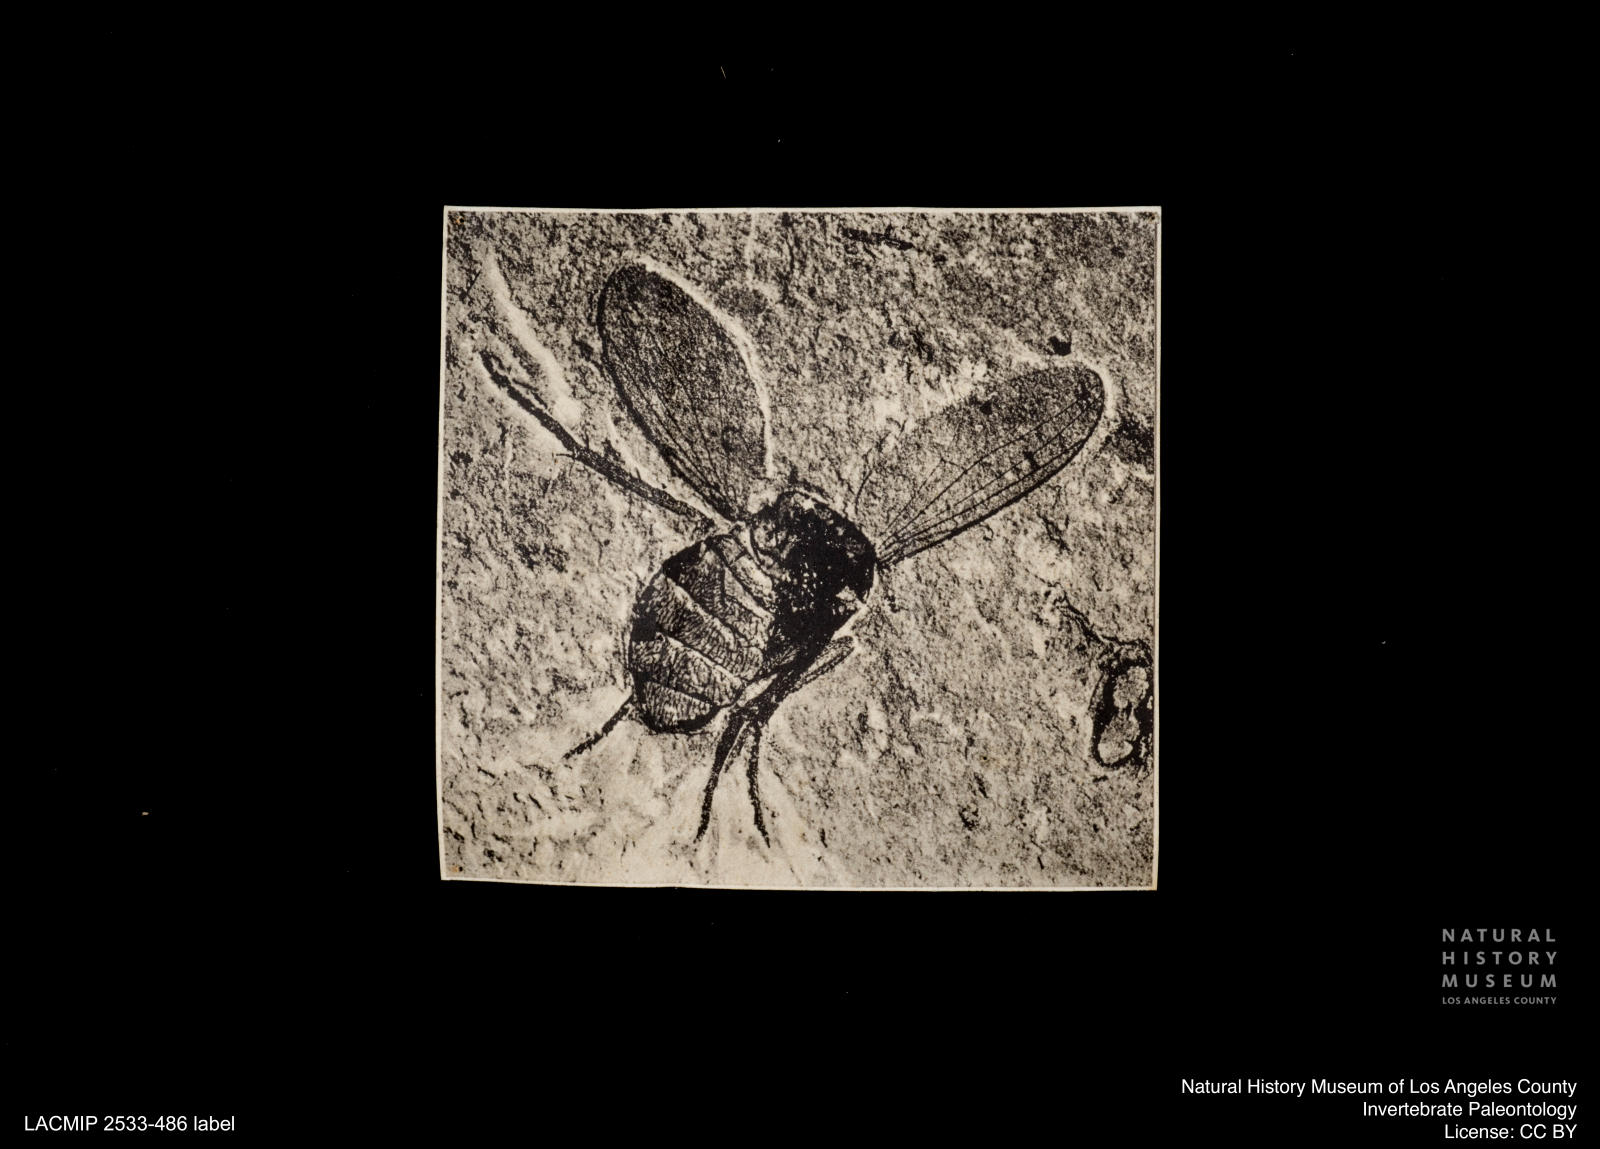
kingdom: Animalia
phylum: Arthropoda
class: Insecta
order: Diptera
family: Dolichopodidae
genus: Dolichopus
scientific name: Dolichopus georgi
